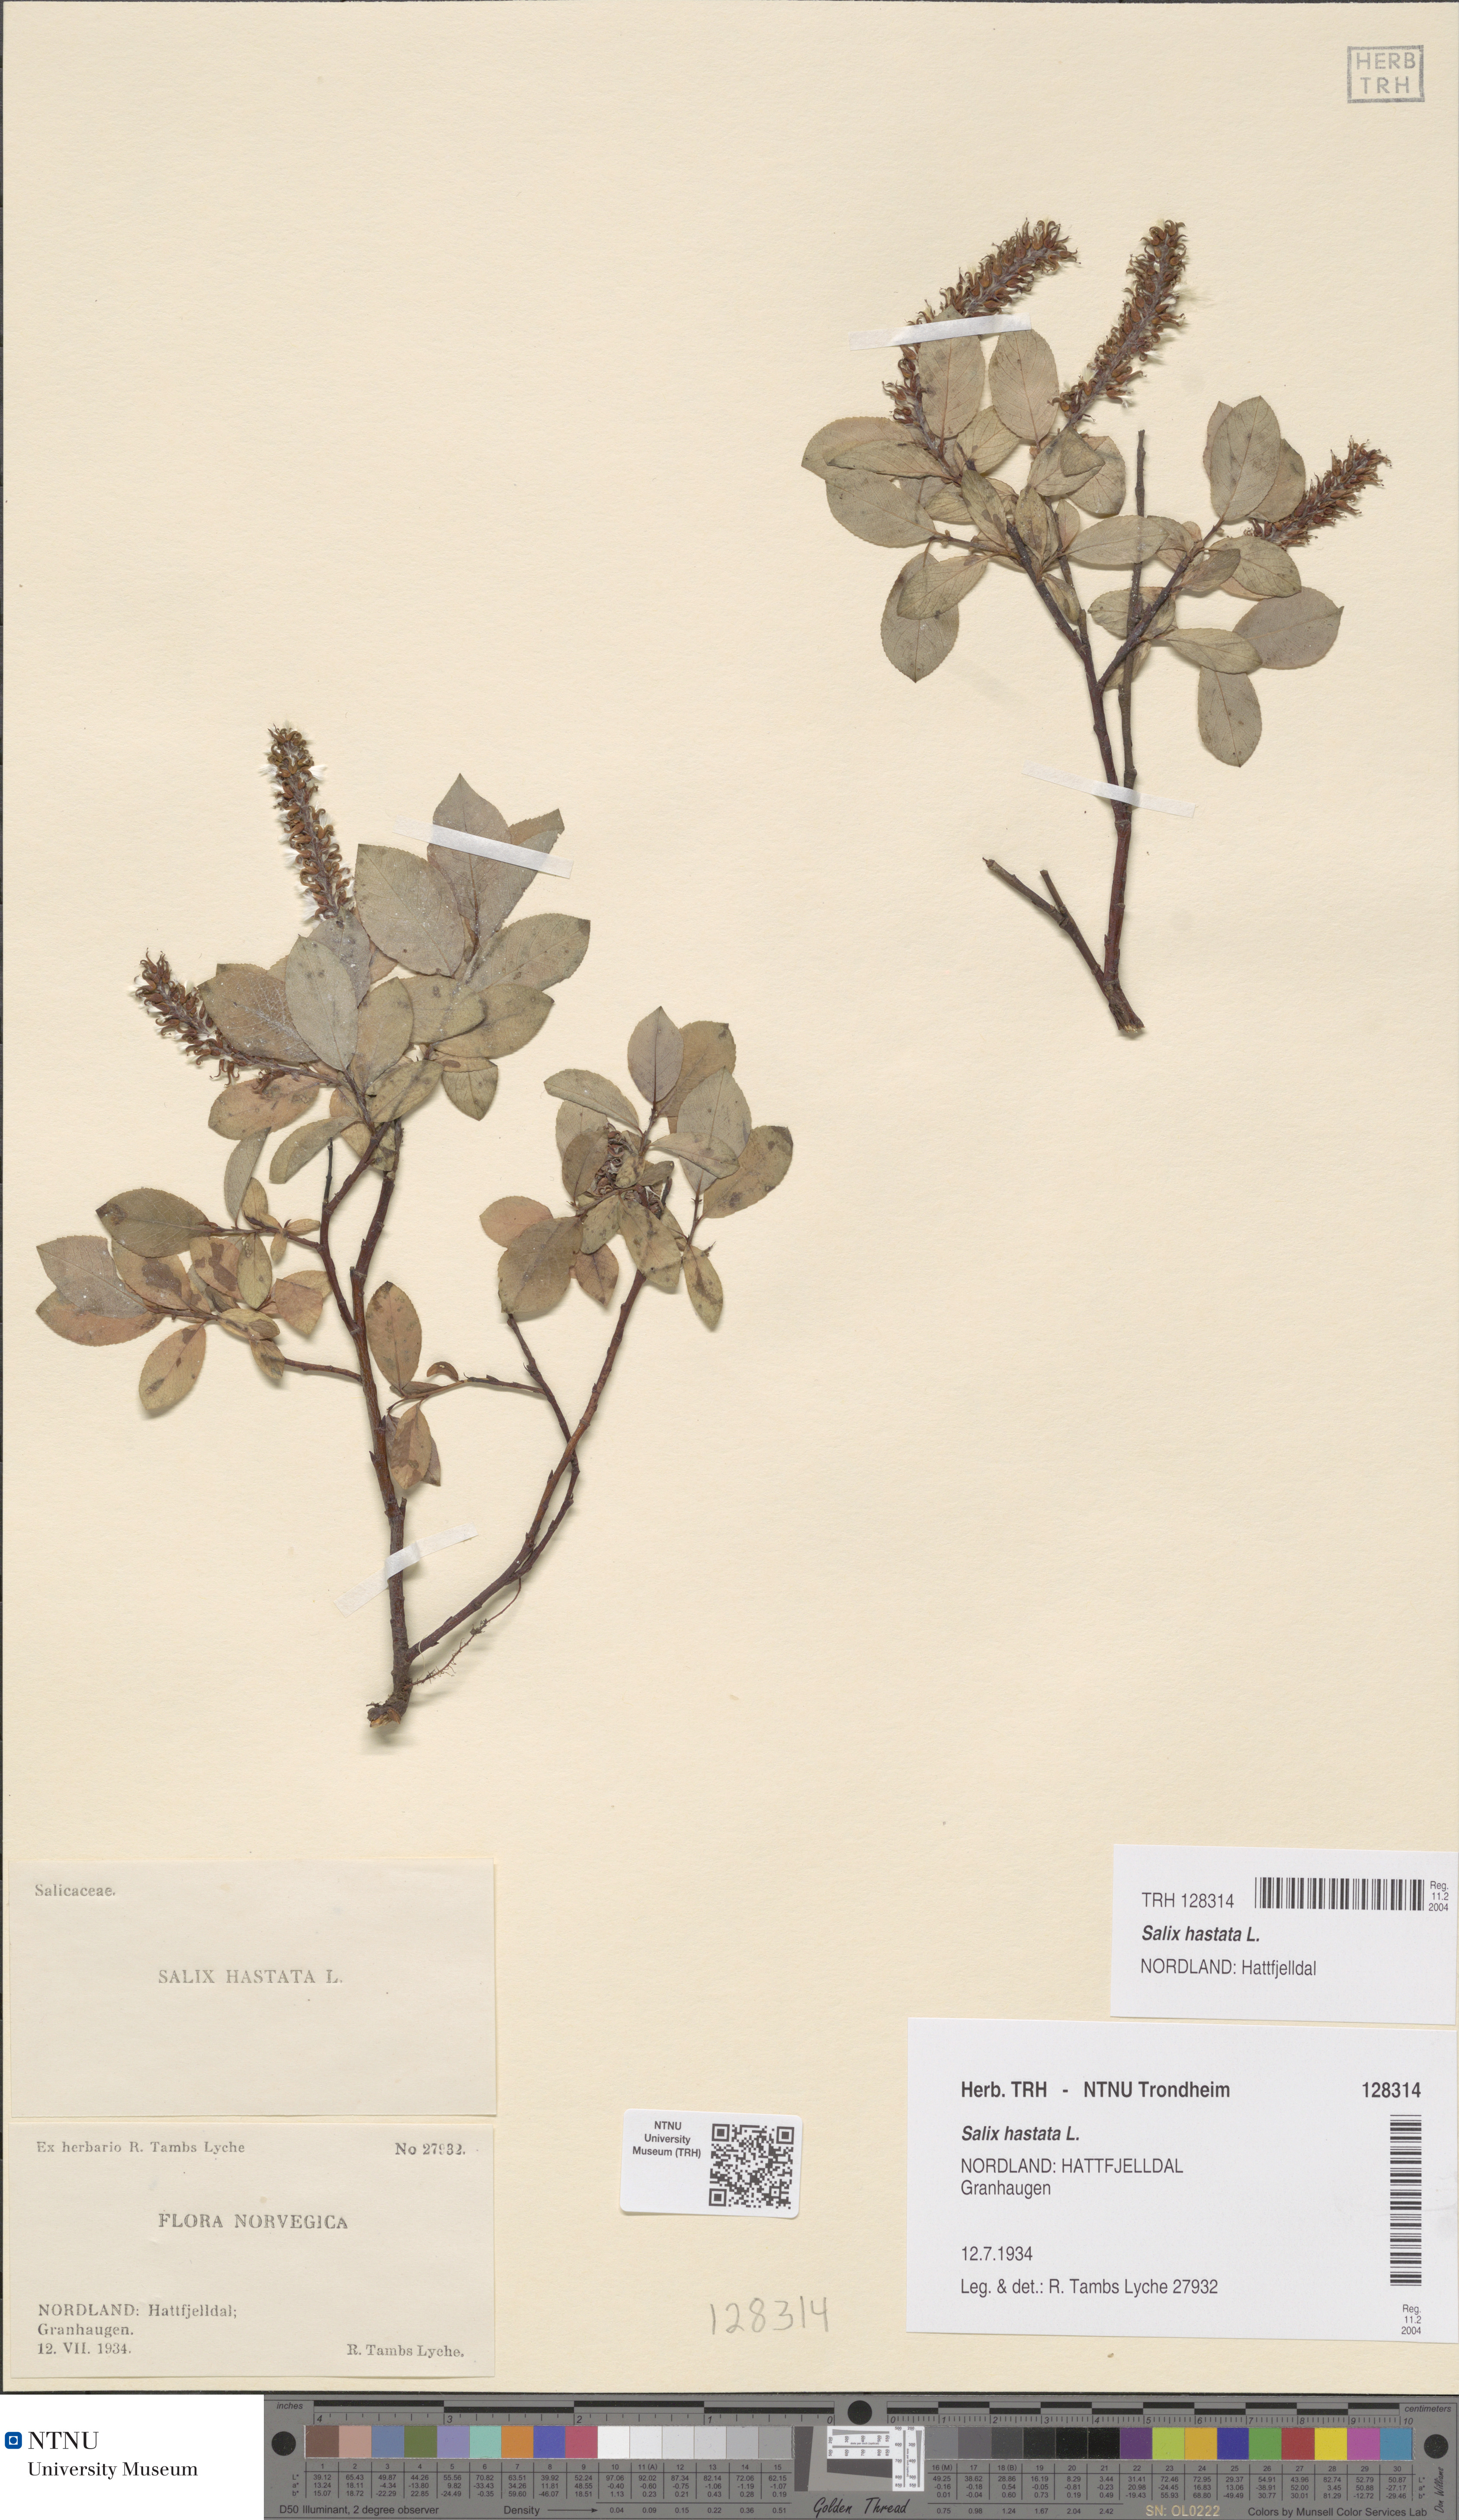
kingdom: Plantae
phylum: Tracheophyta
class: Magnoliopsida
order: Malpighiales
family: Salicaceae
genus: Salix
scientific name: Salix hastata
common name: Halberd willow
